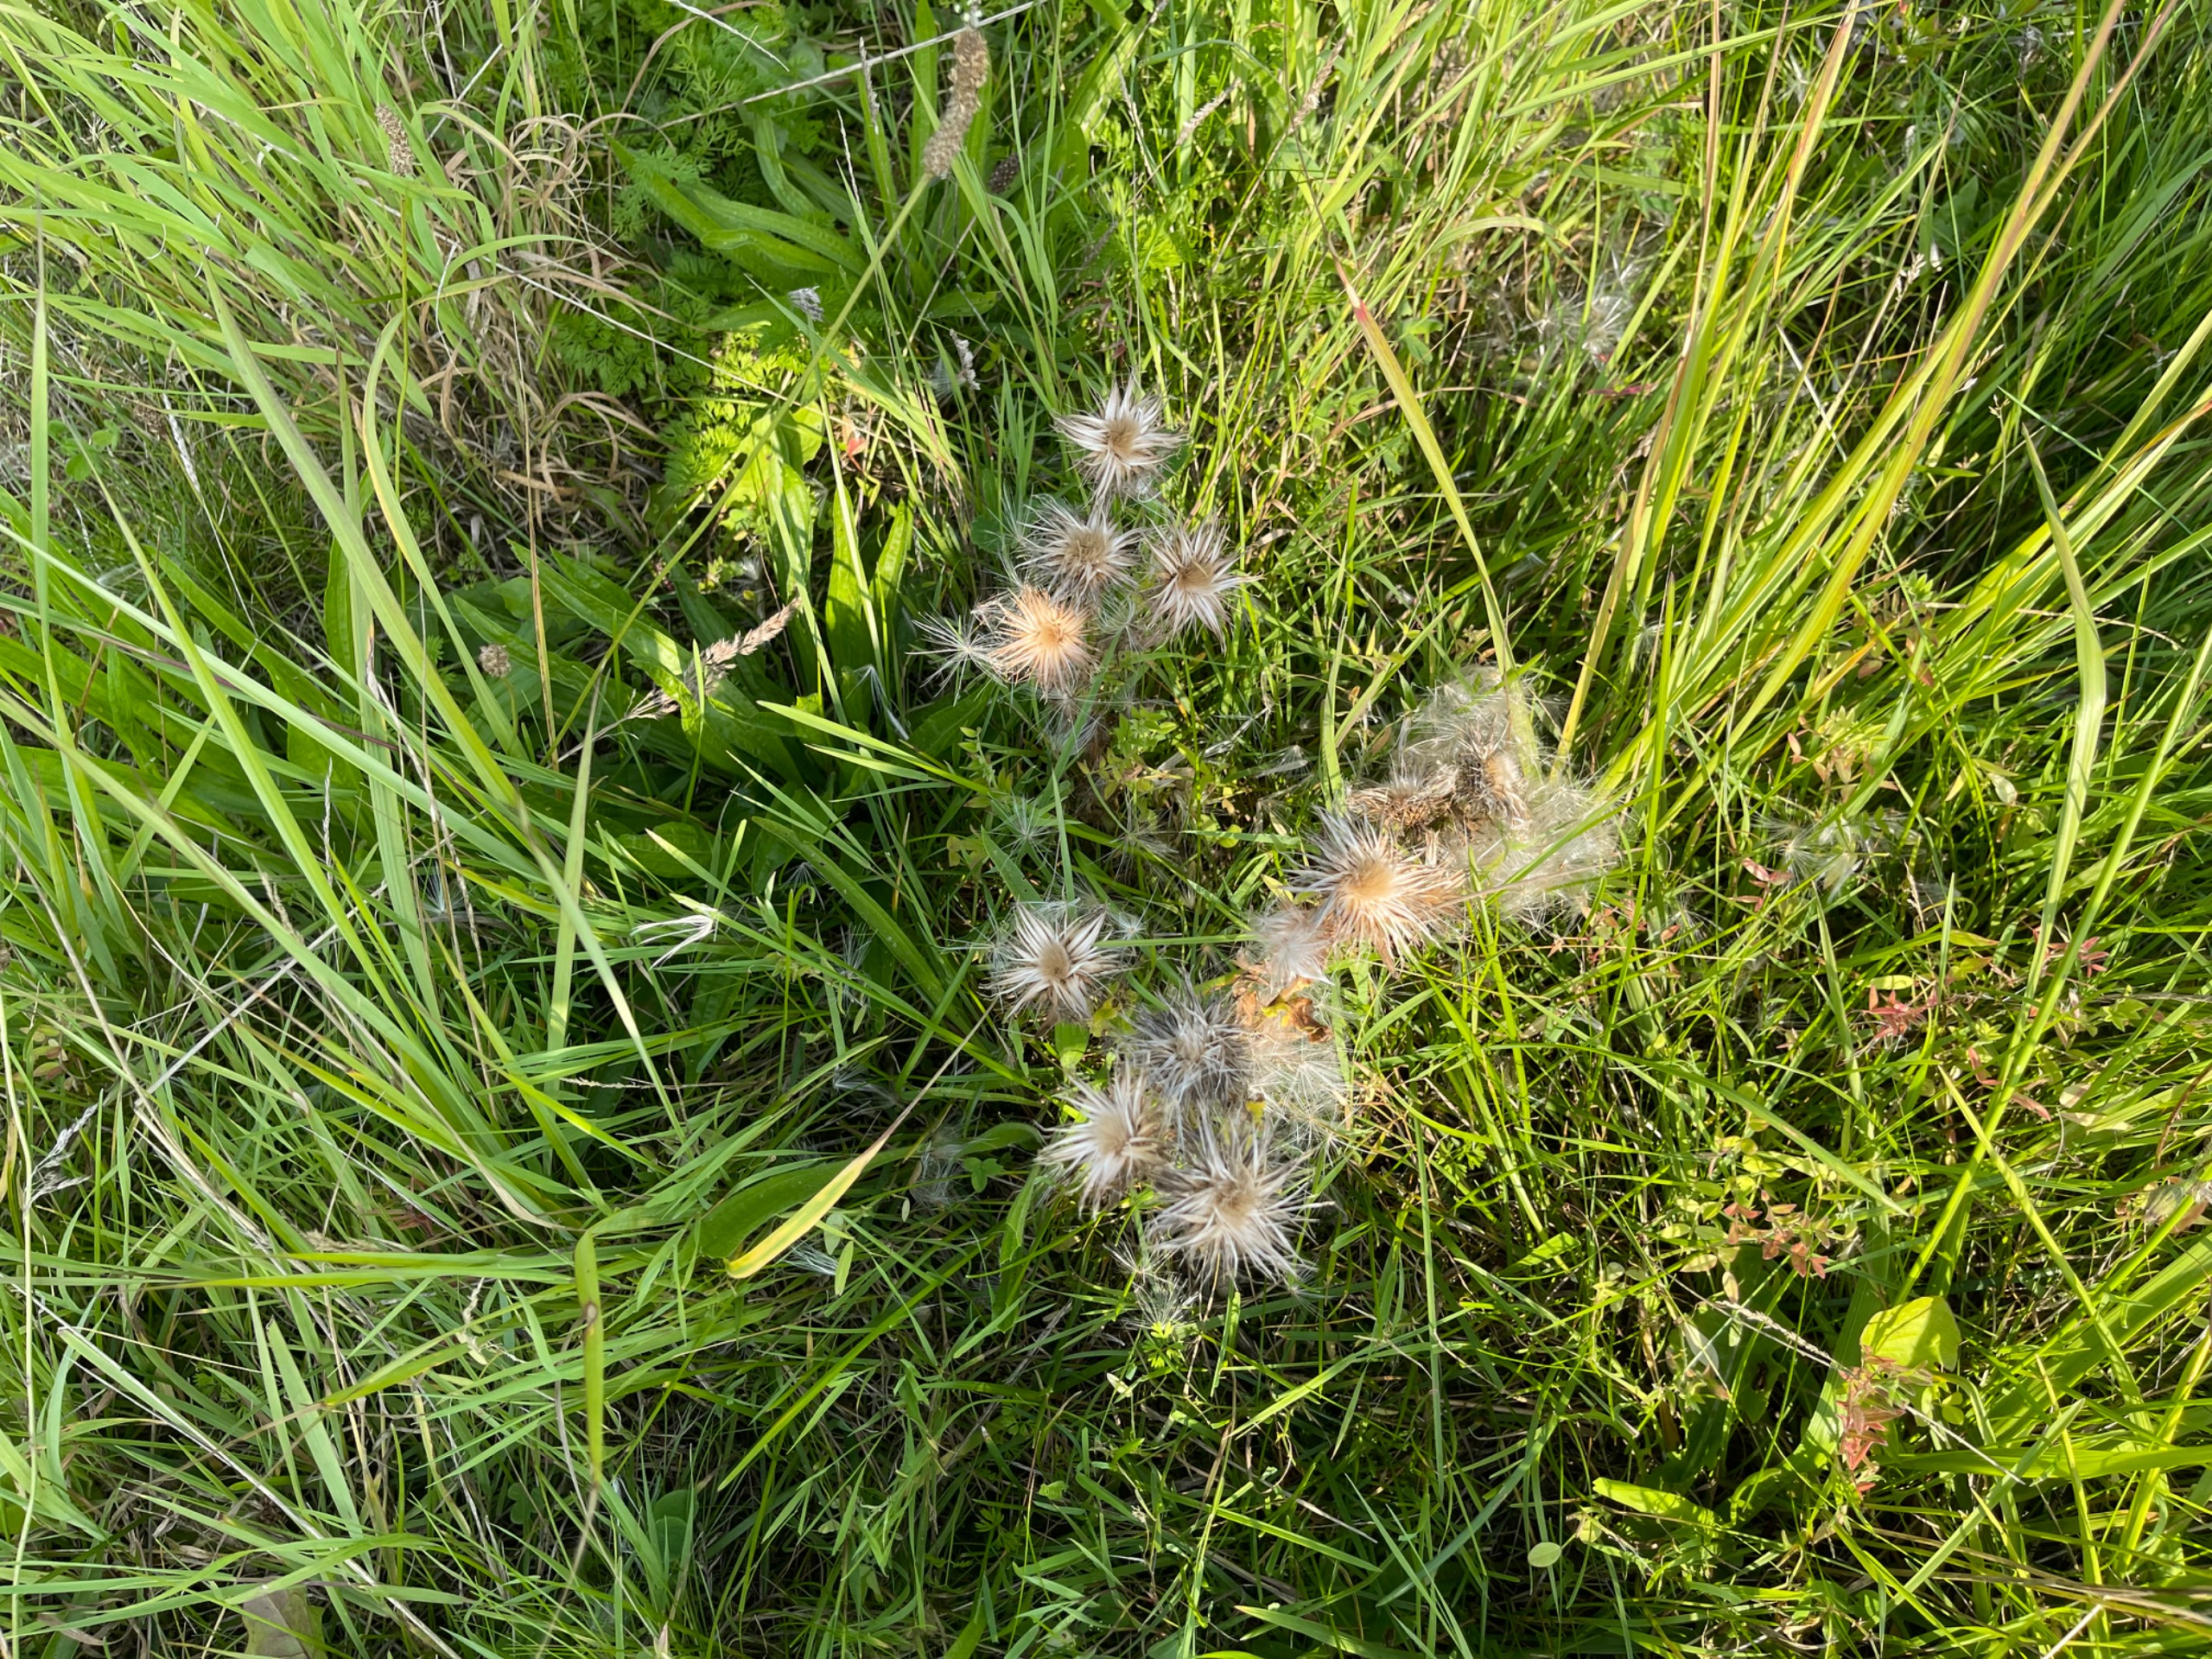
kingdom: Plantae
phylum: Tracheophyta
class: Magnoliopsida
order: Asterales
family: Asteraceae
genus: Carlina
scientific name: Carlina vulgaris
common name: Bakketidsel
